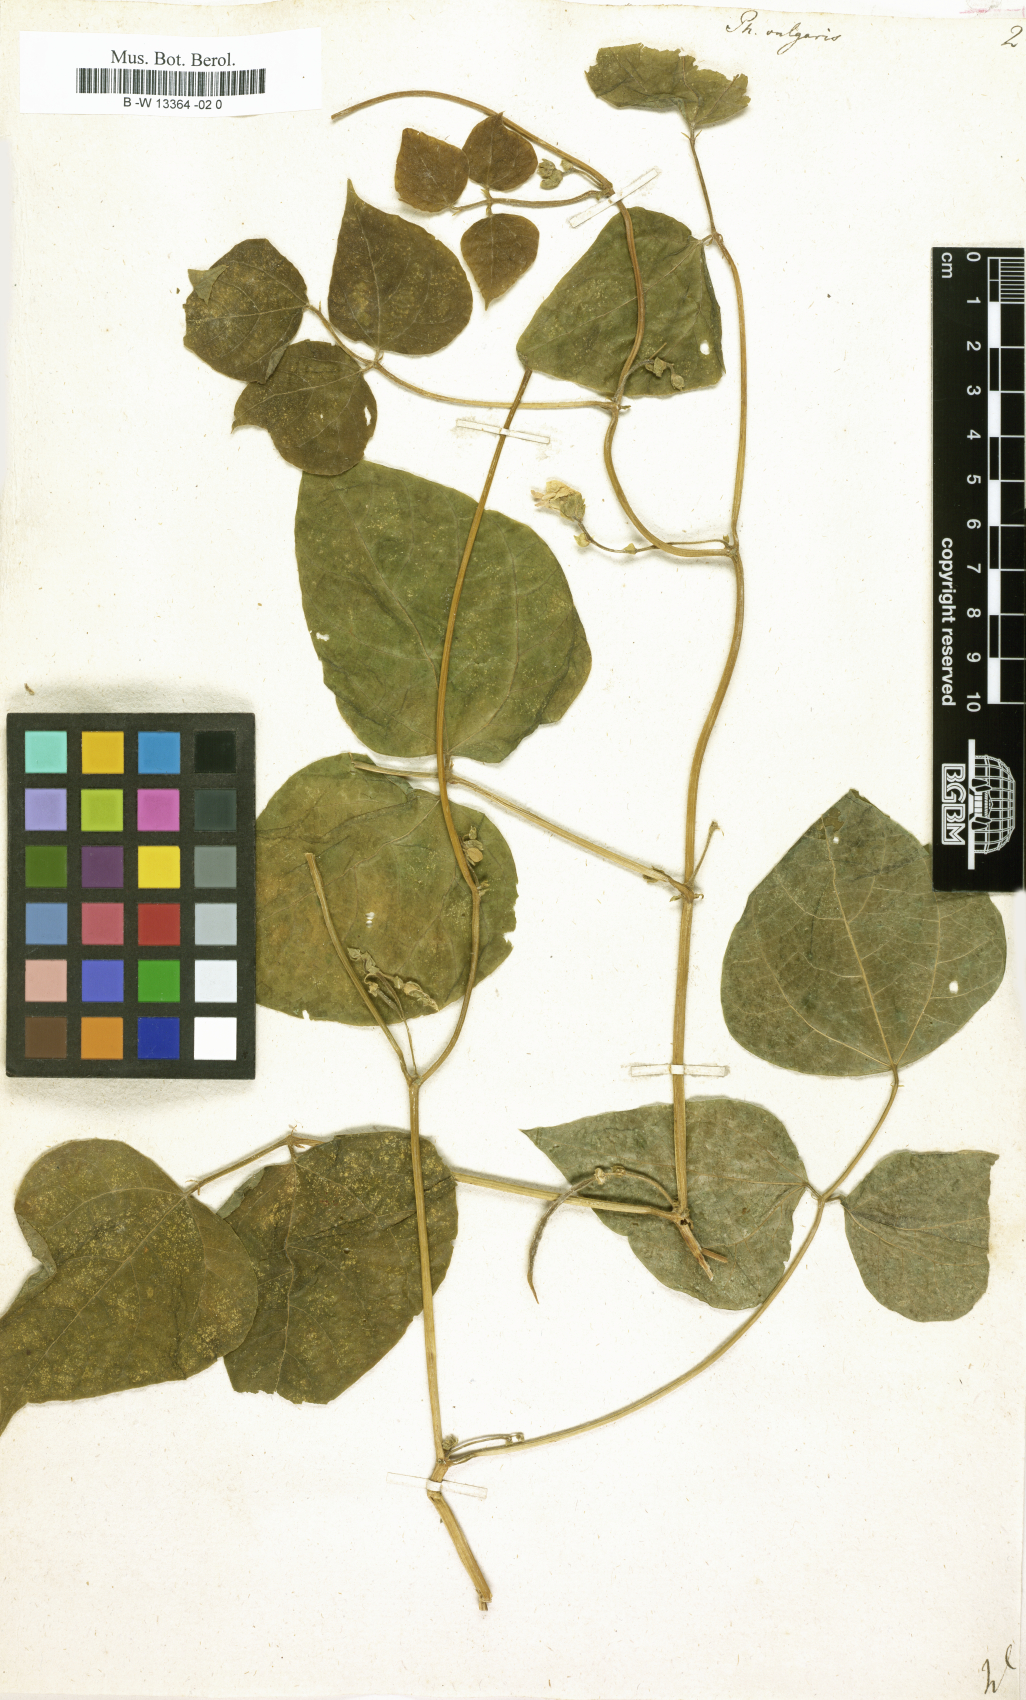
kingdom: Plantae
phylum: Tracheophyta
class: Magnoliopsida
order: Fabales
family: Fabaceae
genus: Phaseolus
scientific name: Phaseolus vulgaris
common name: Bean
